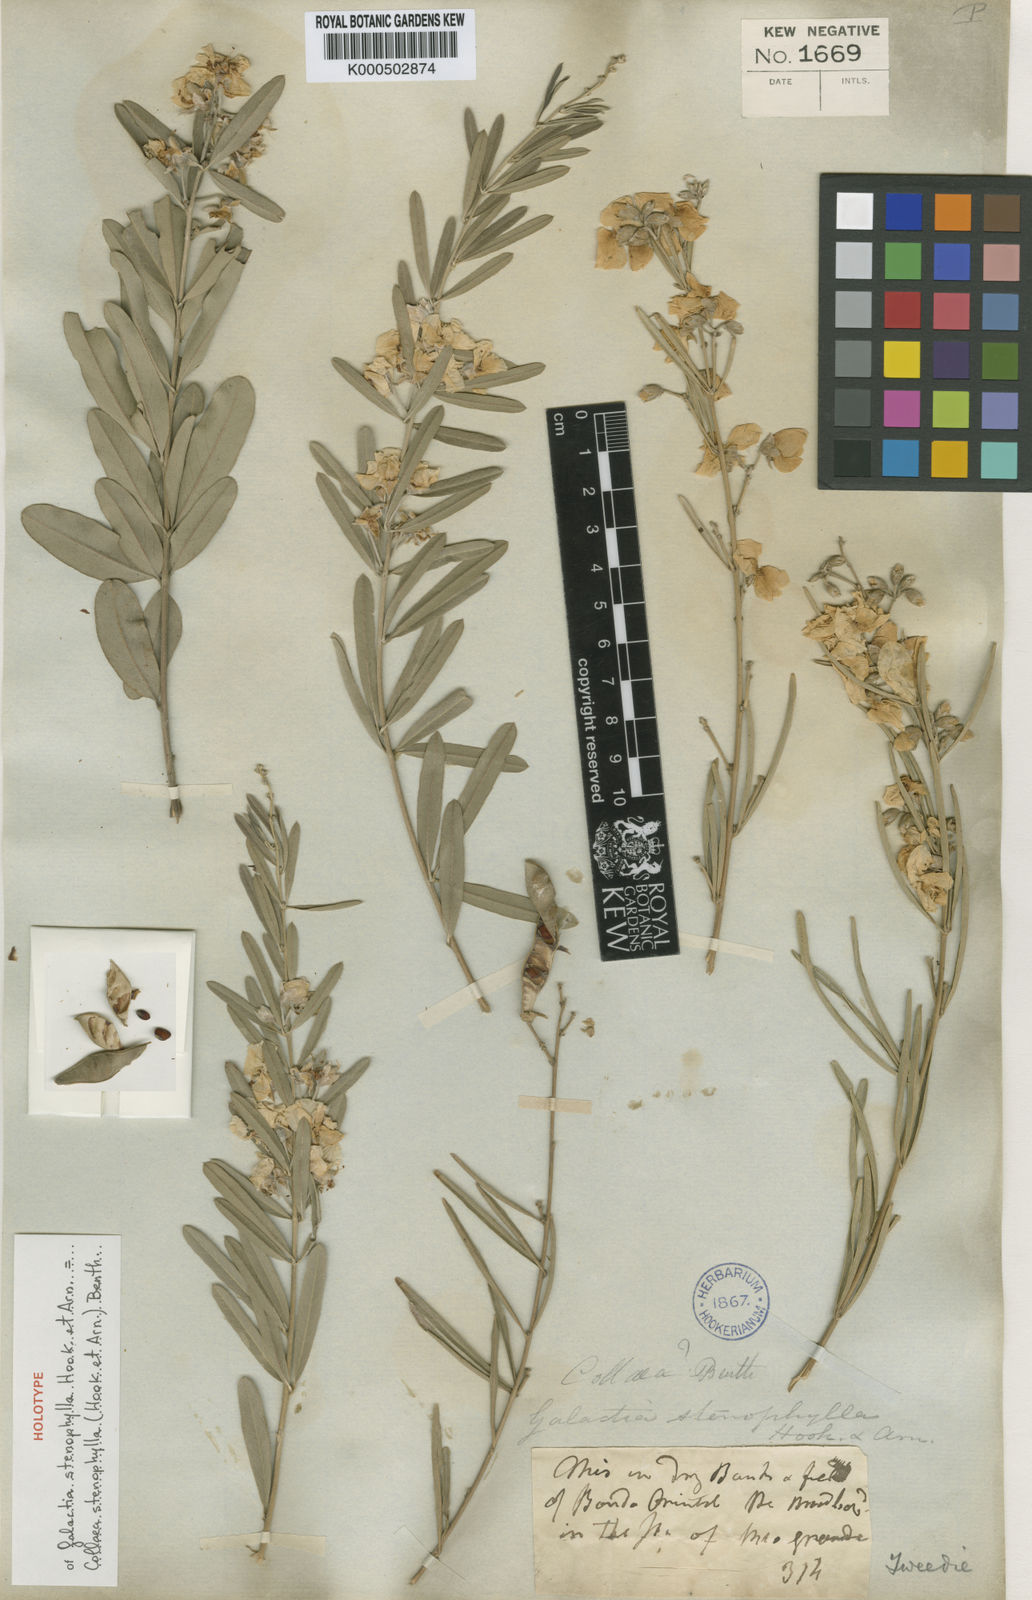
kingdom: Plantae
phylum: Tracheophyta
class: Magnoliopsida
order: Fabales
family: Fabaceae
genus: Collaea
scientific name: Collaea stenophylla
